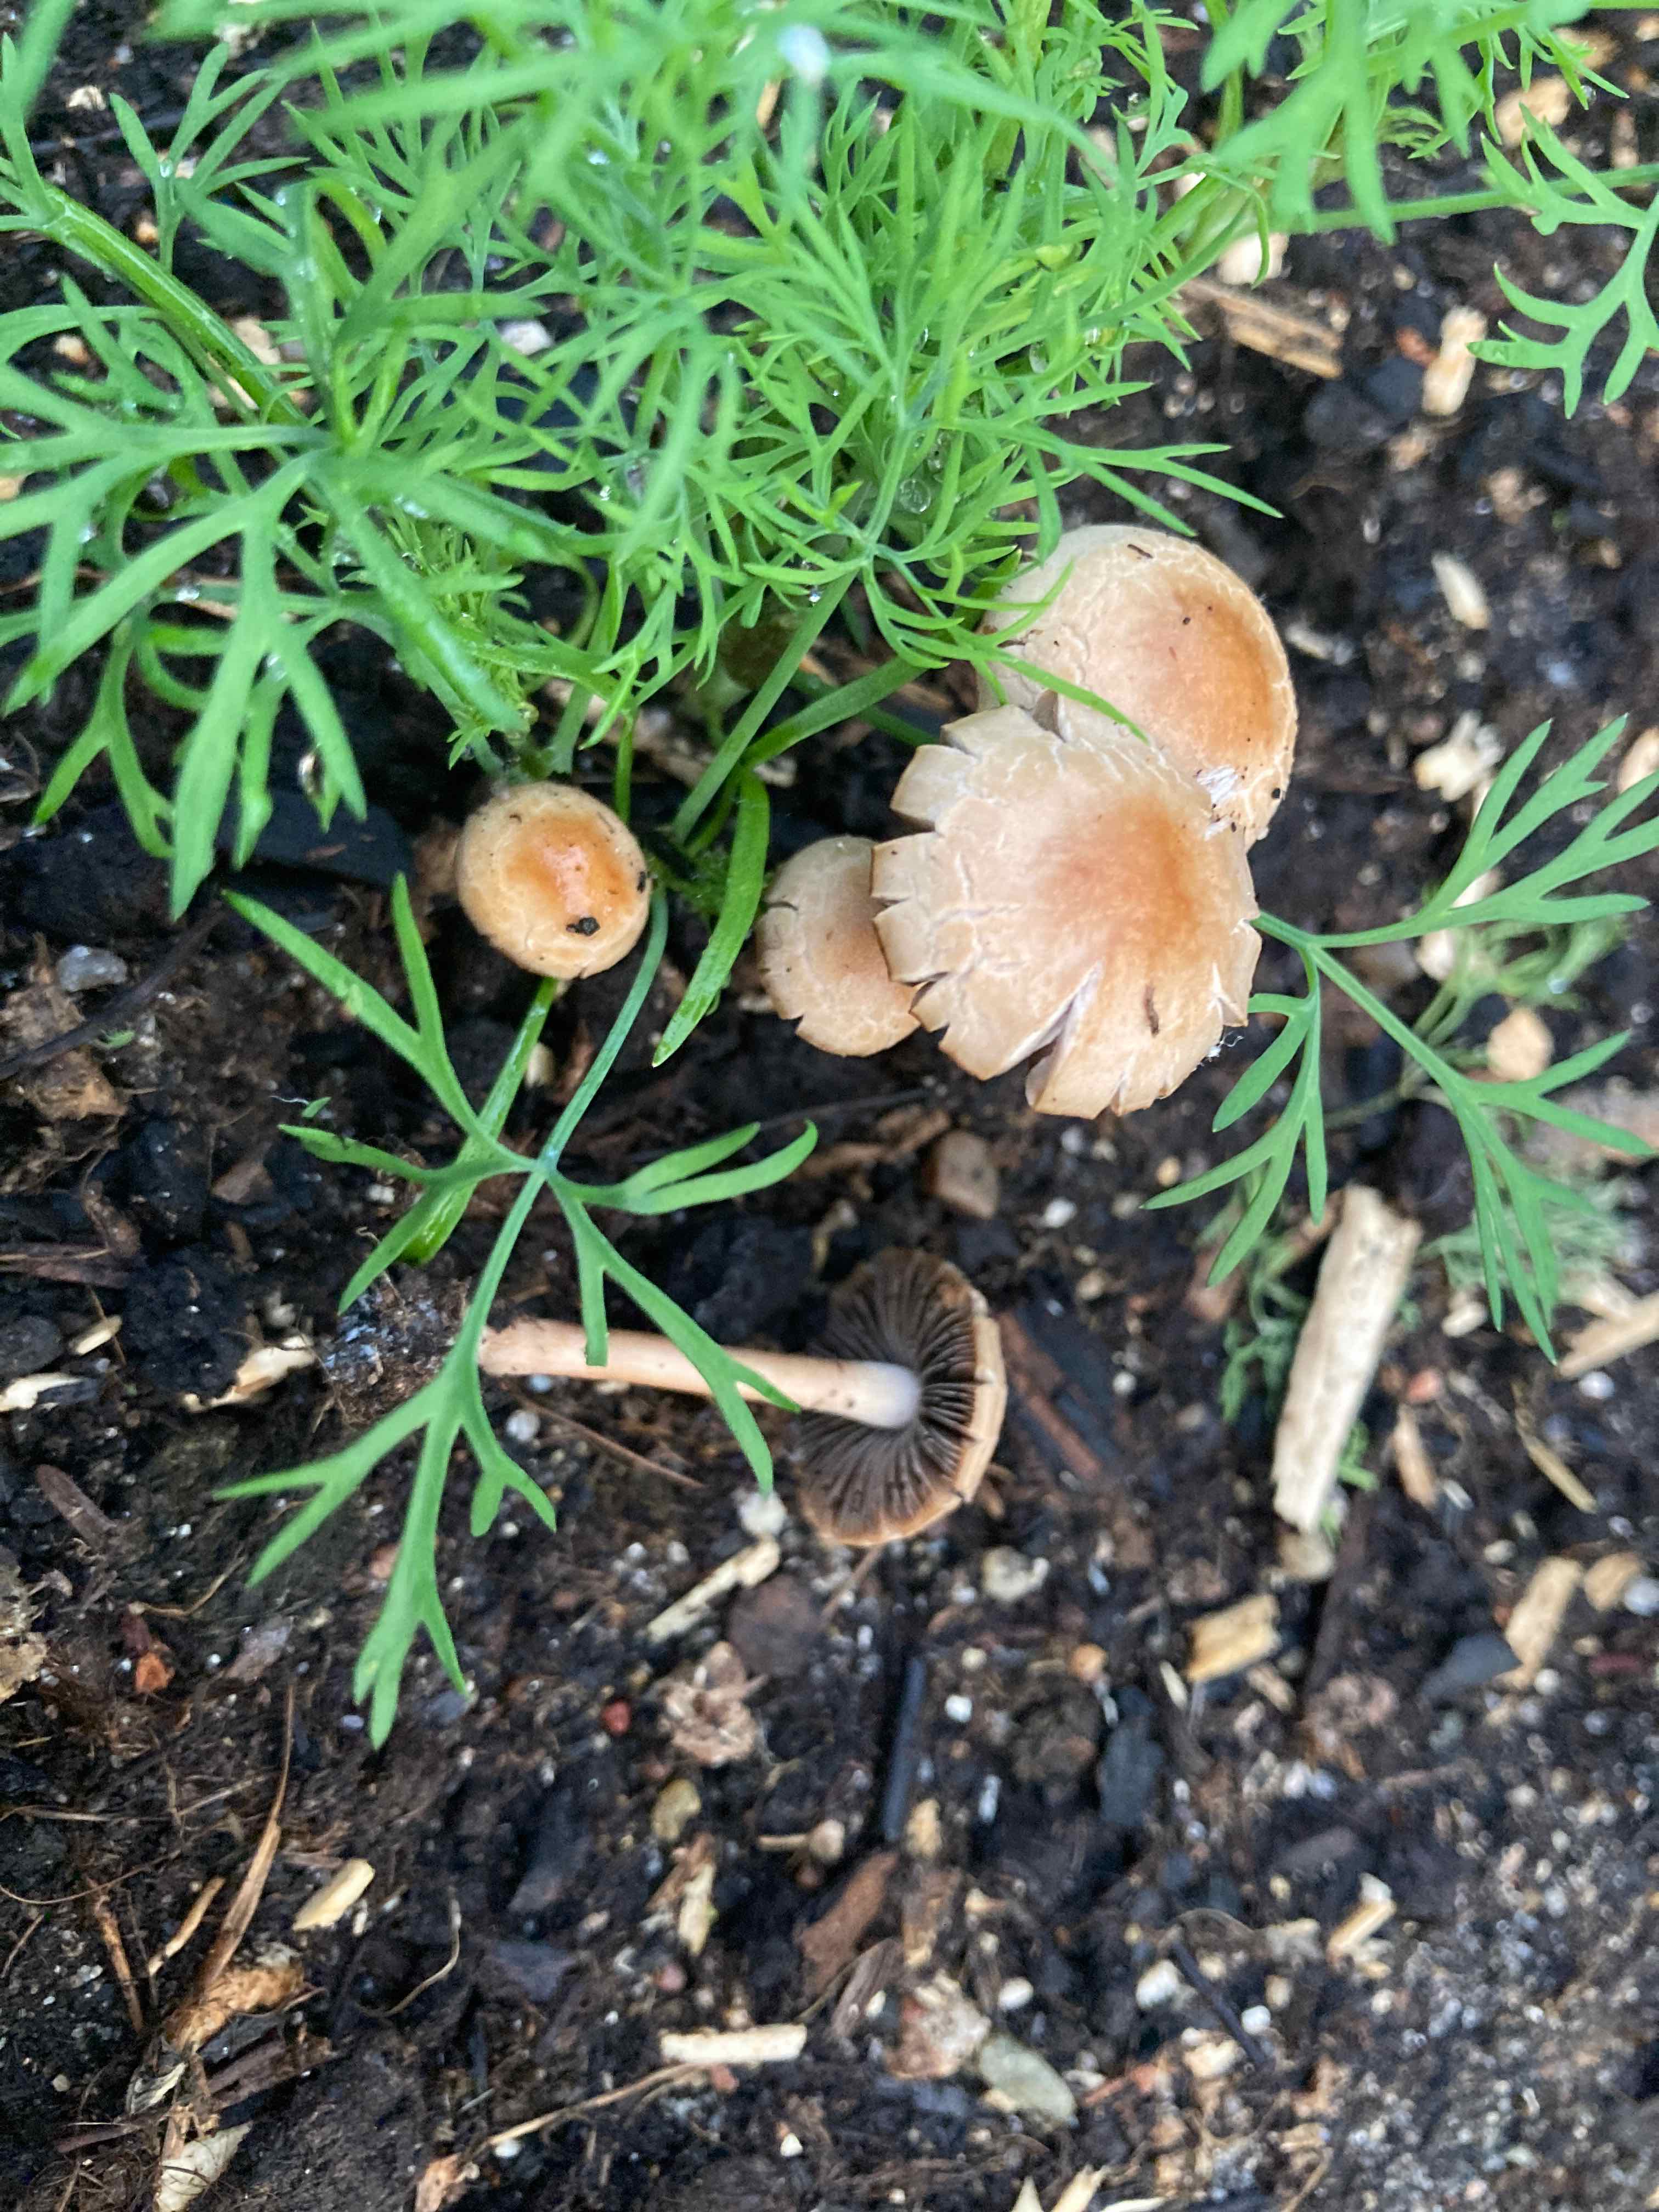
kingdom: Fungi
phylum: Basidiomycota
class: Agaricomycetes
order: Agaricales
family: Bolbitiaceae
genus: Panaeolina
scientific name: Panaeolina foenisecii
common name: høslætsvamp
